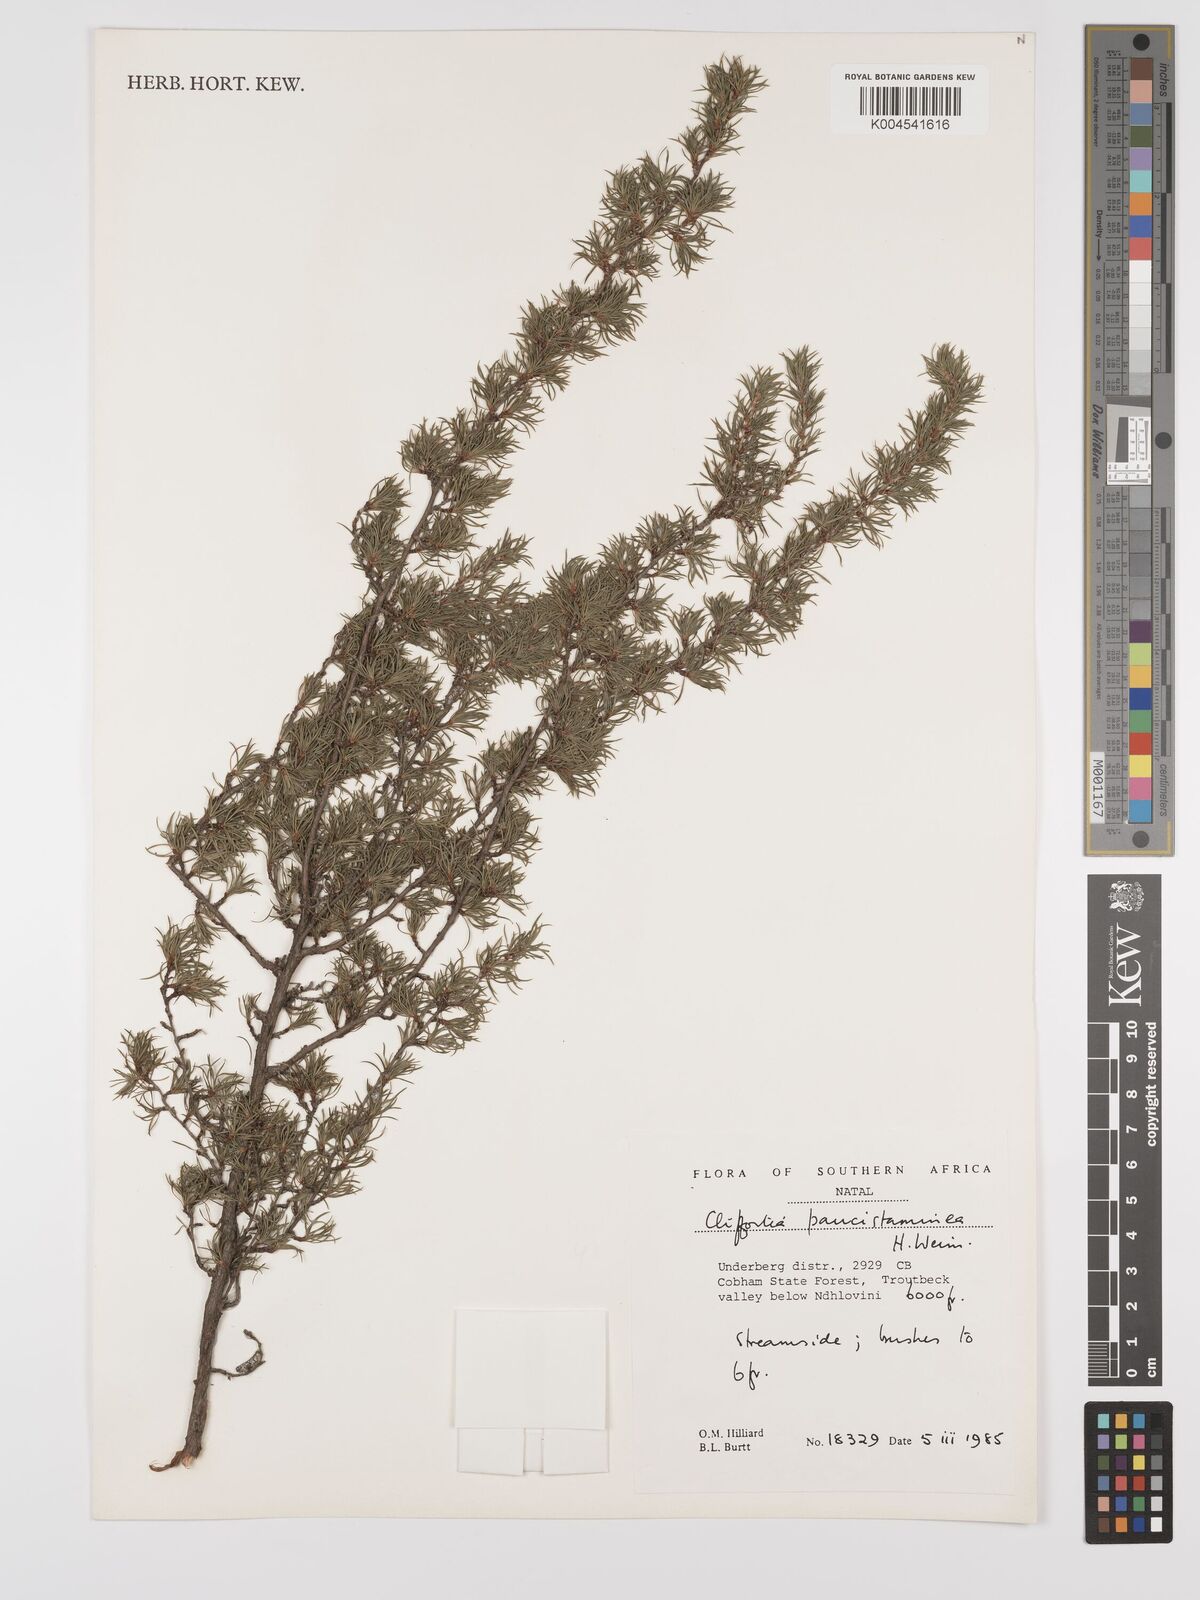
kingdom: Plantae
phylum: Tracheophyta
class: Magnoliopsida
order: Rosales
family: Rosaceae
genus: Cliffortia
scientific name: Cliffortia paucistaminea
